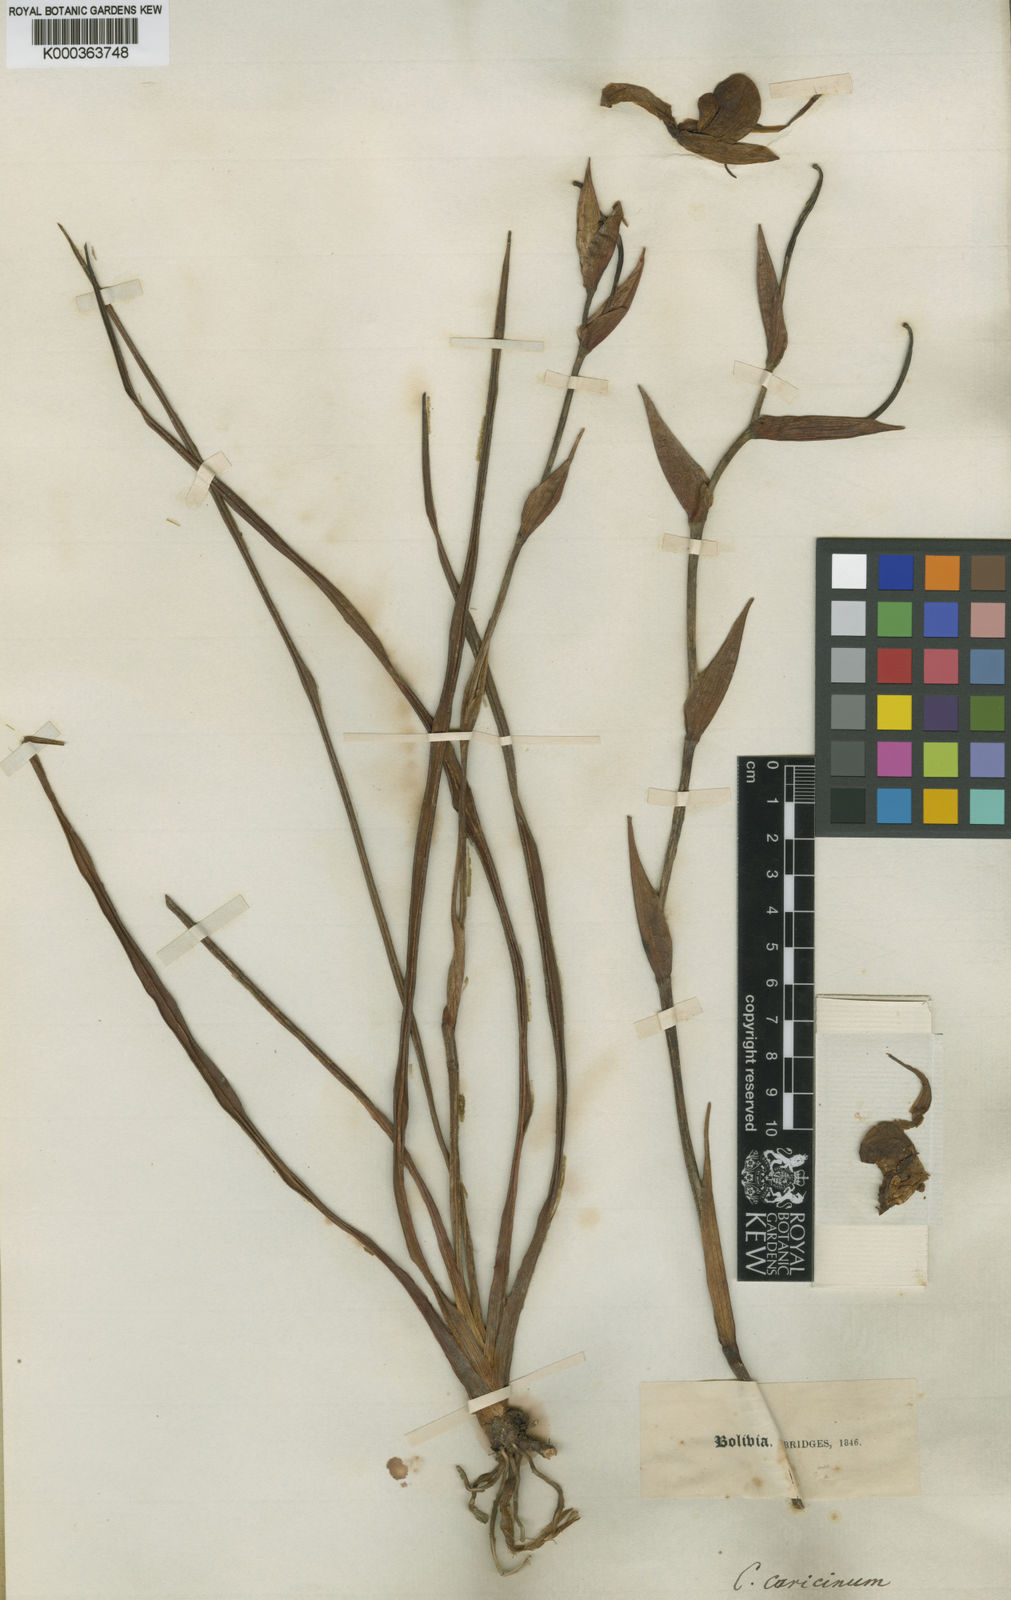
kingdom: Plantae
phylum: Tracheophyta
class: Liliopsida
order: Asparagales
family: Orchidaceae
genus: Phragmipedium
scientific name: Phragmipedium caricinum
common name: Reed grass-like phragmipedium
